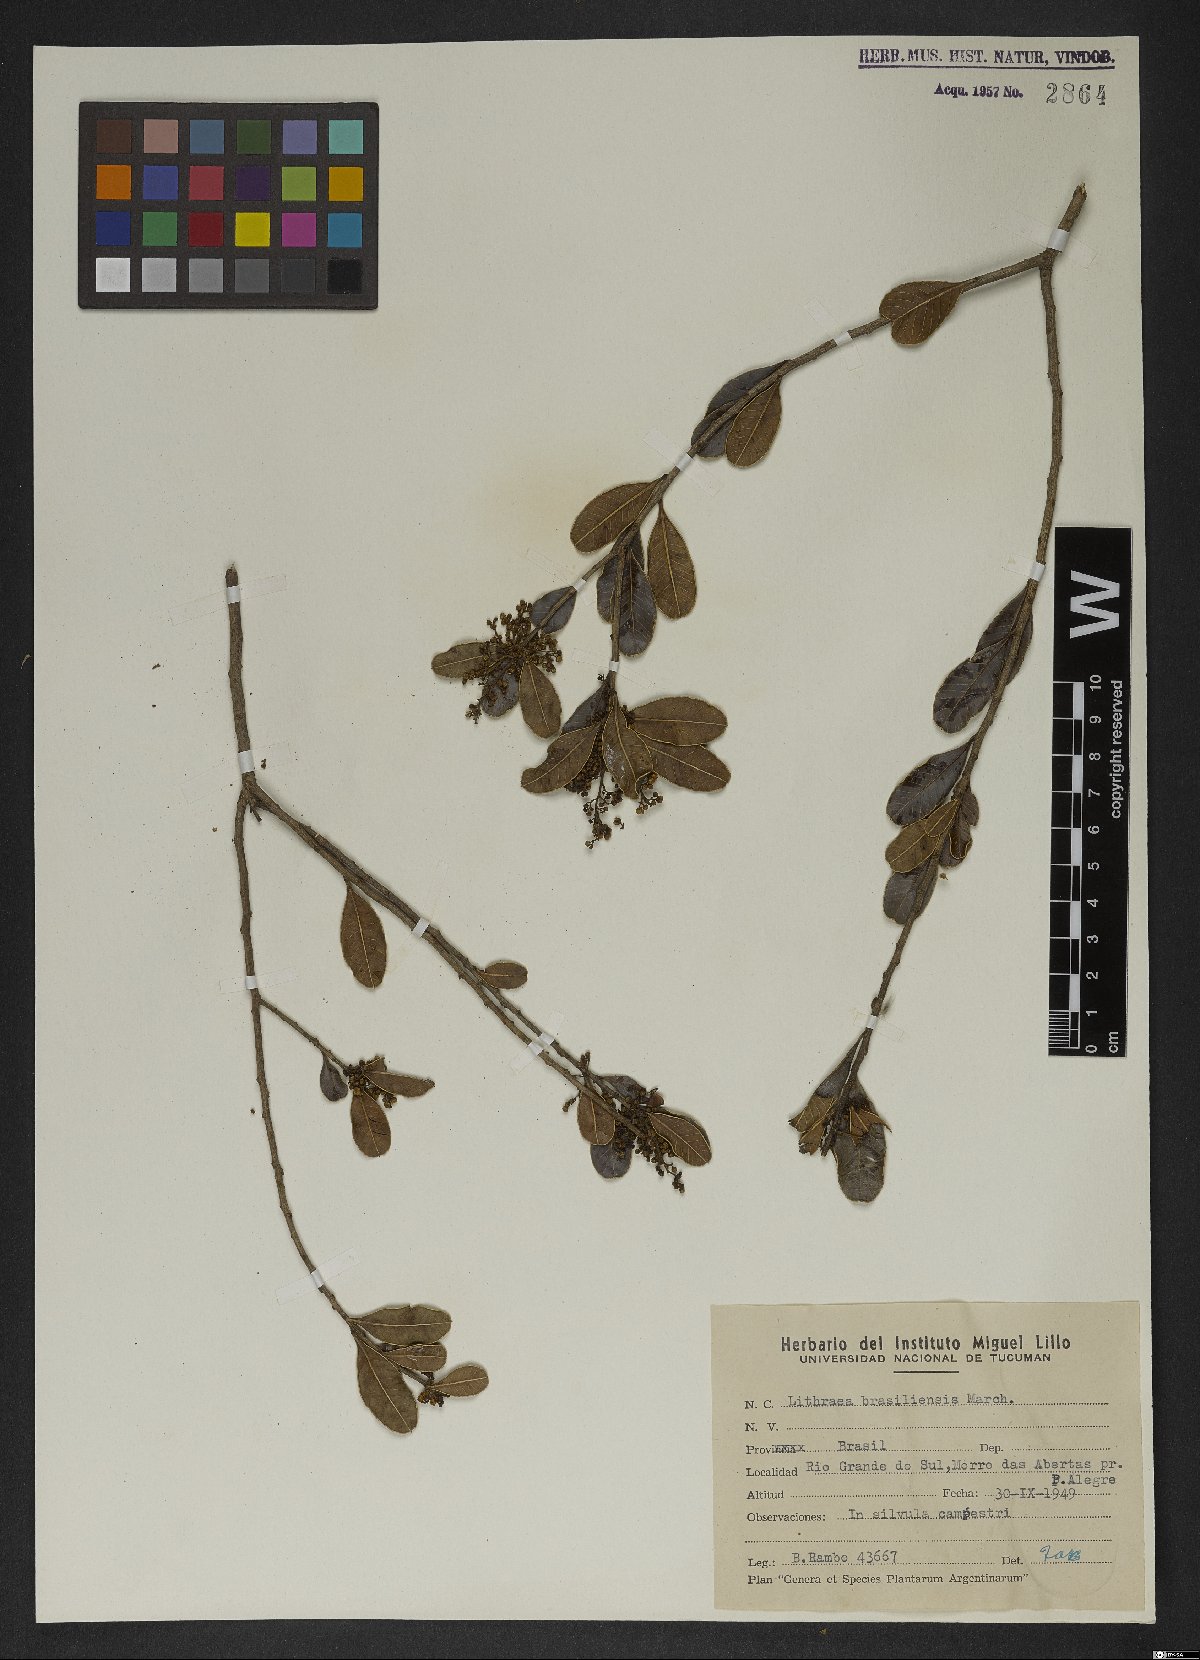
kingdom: Plantae
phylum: Tracheophyta
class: Magnoliopsida
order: Sapindales
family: Anacardiaceae
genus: Lithraea
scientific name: Lithraea brasiliensis
